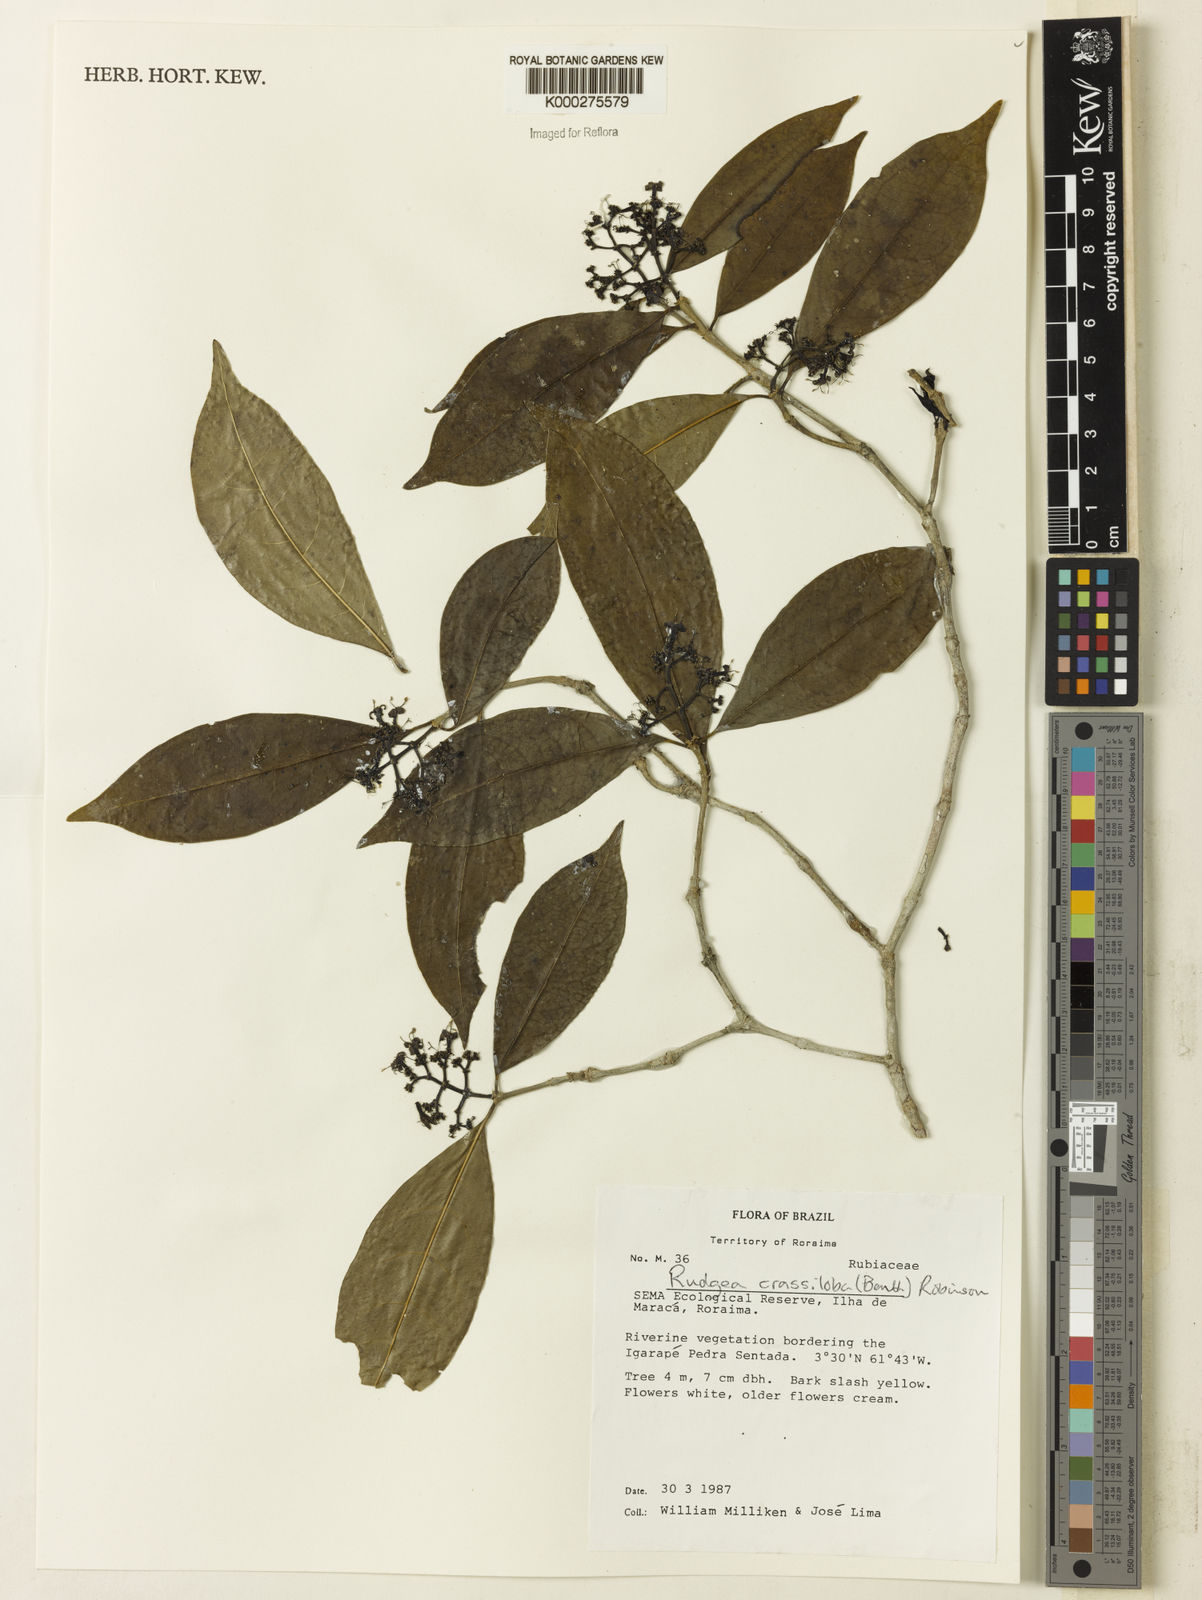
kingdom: Plantae
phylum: Tracheophyta
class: Magnoliopsida
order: Gentianales
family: Rubiaceae
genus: Rudgea
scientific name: Rudgea crassiloba
